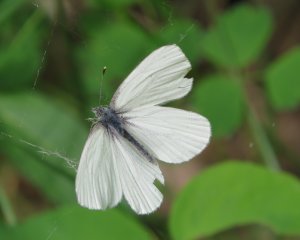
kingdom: Animalia
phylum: Arthropoda
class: Insecta
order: Lepidoptera
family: Pieridae
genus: Pieris
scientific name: Pieris oleracea
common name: Mustard White
